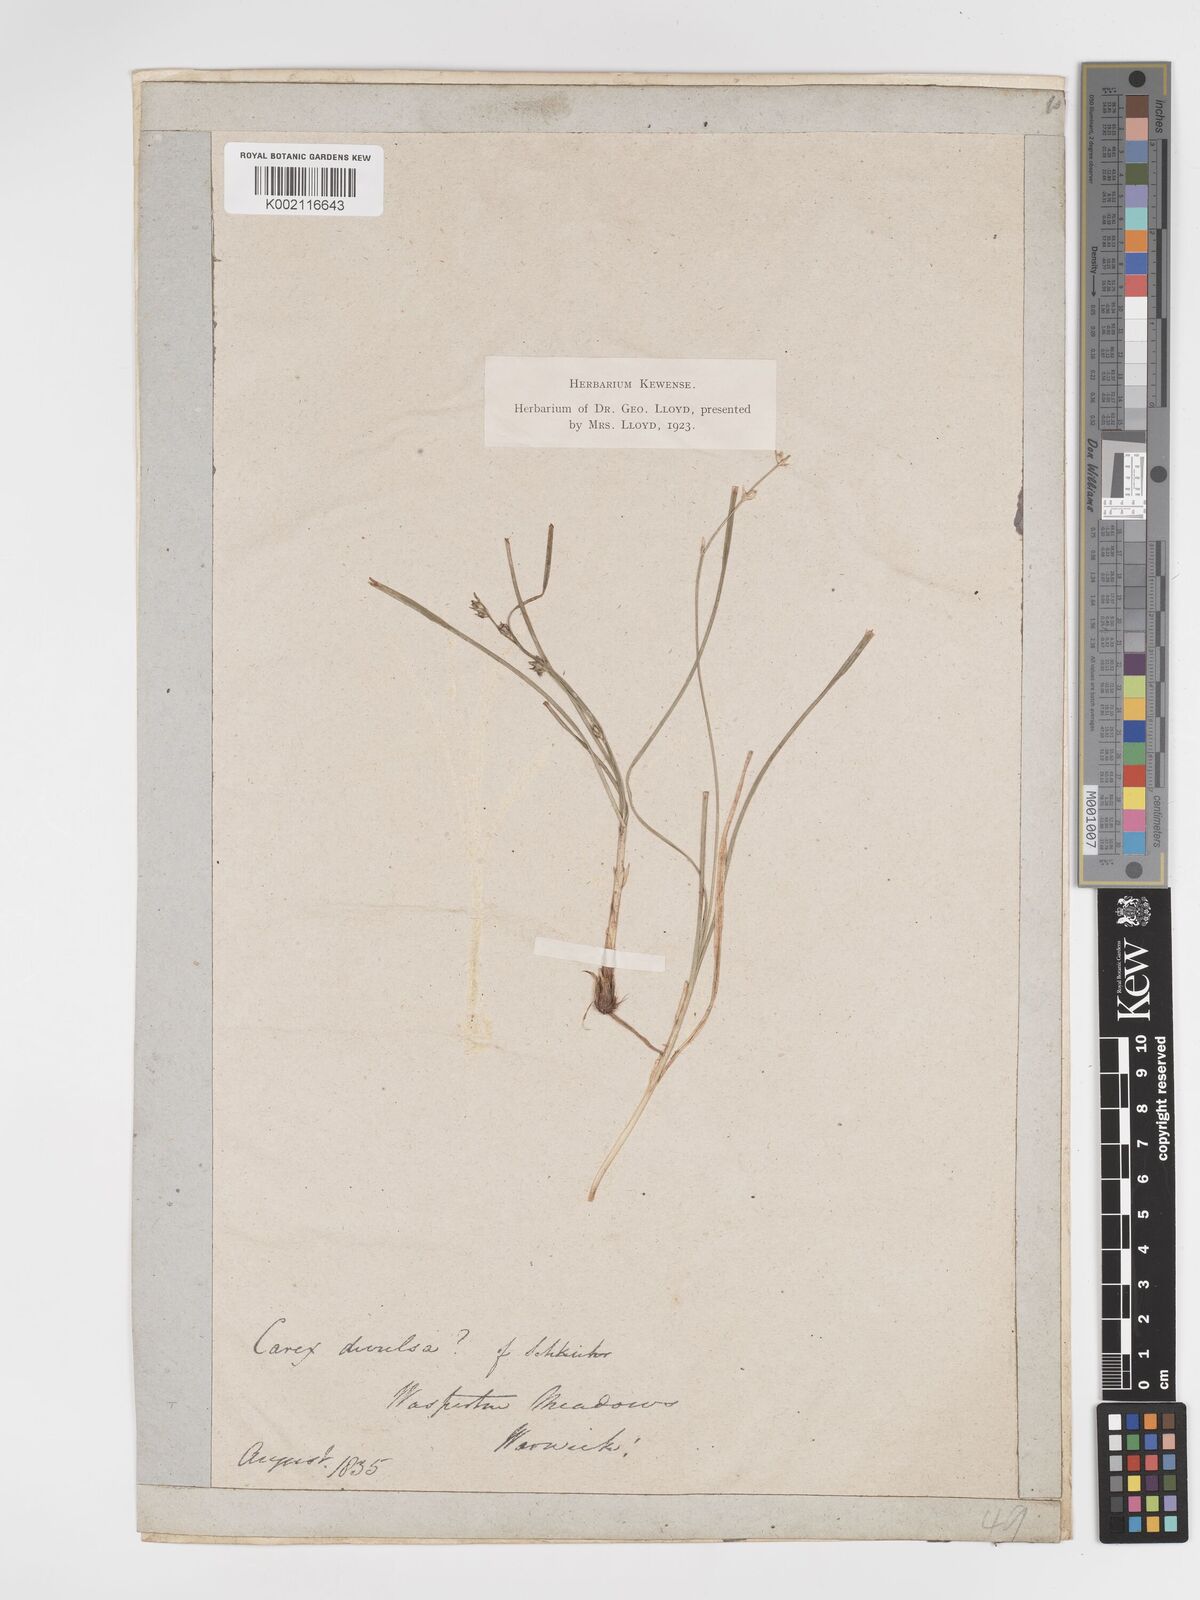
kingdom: Plantae
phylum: Tracheophyta
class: Liliopsida
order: Poales
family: Cyperaceae
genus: Carex
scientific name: Carex divulsa
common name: Grassland sedge
